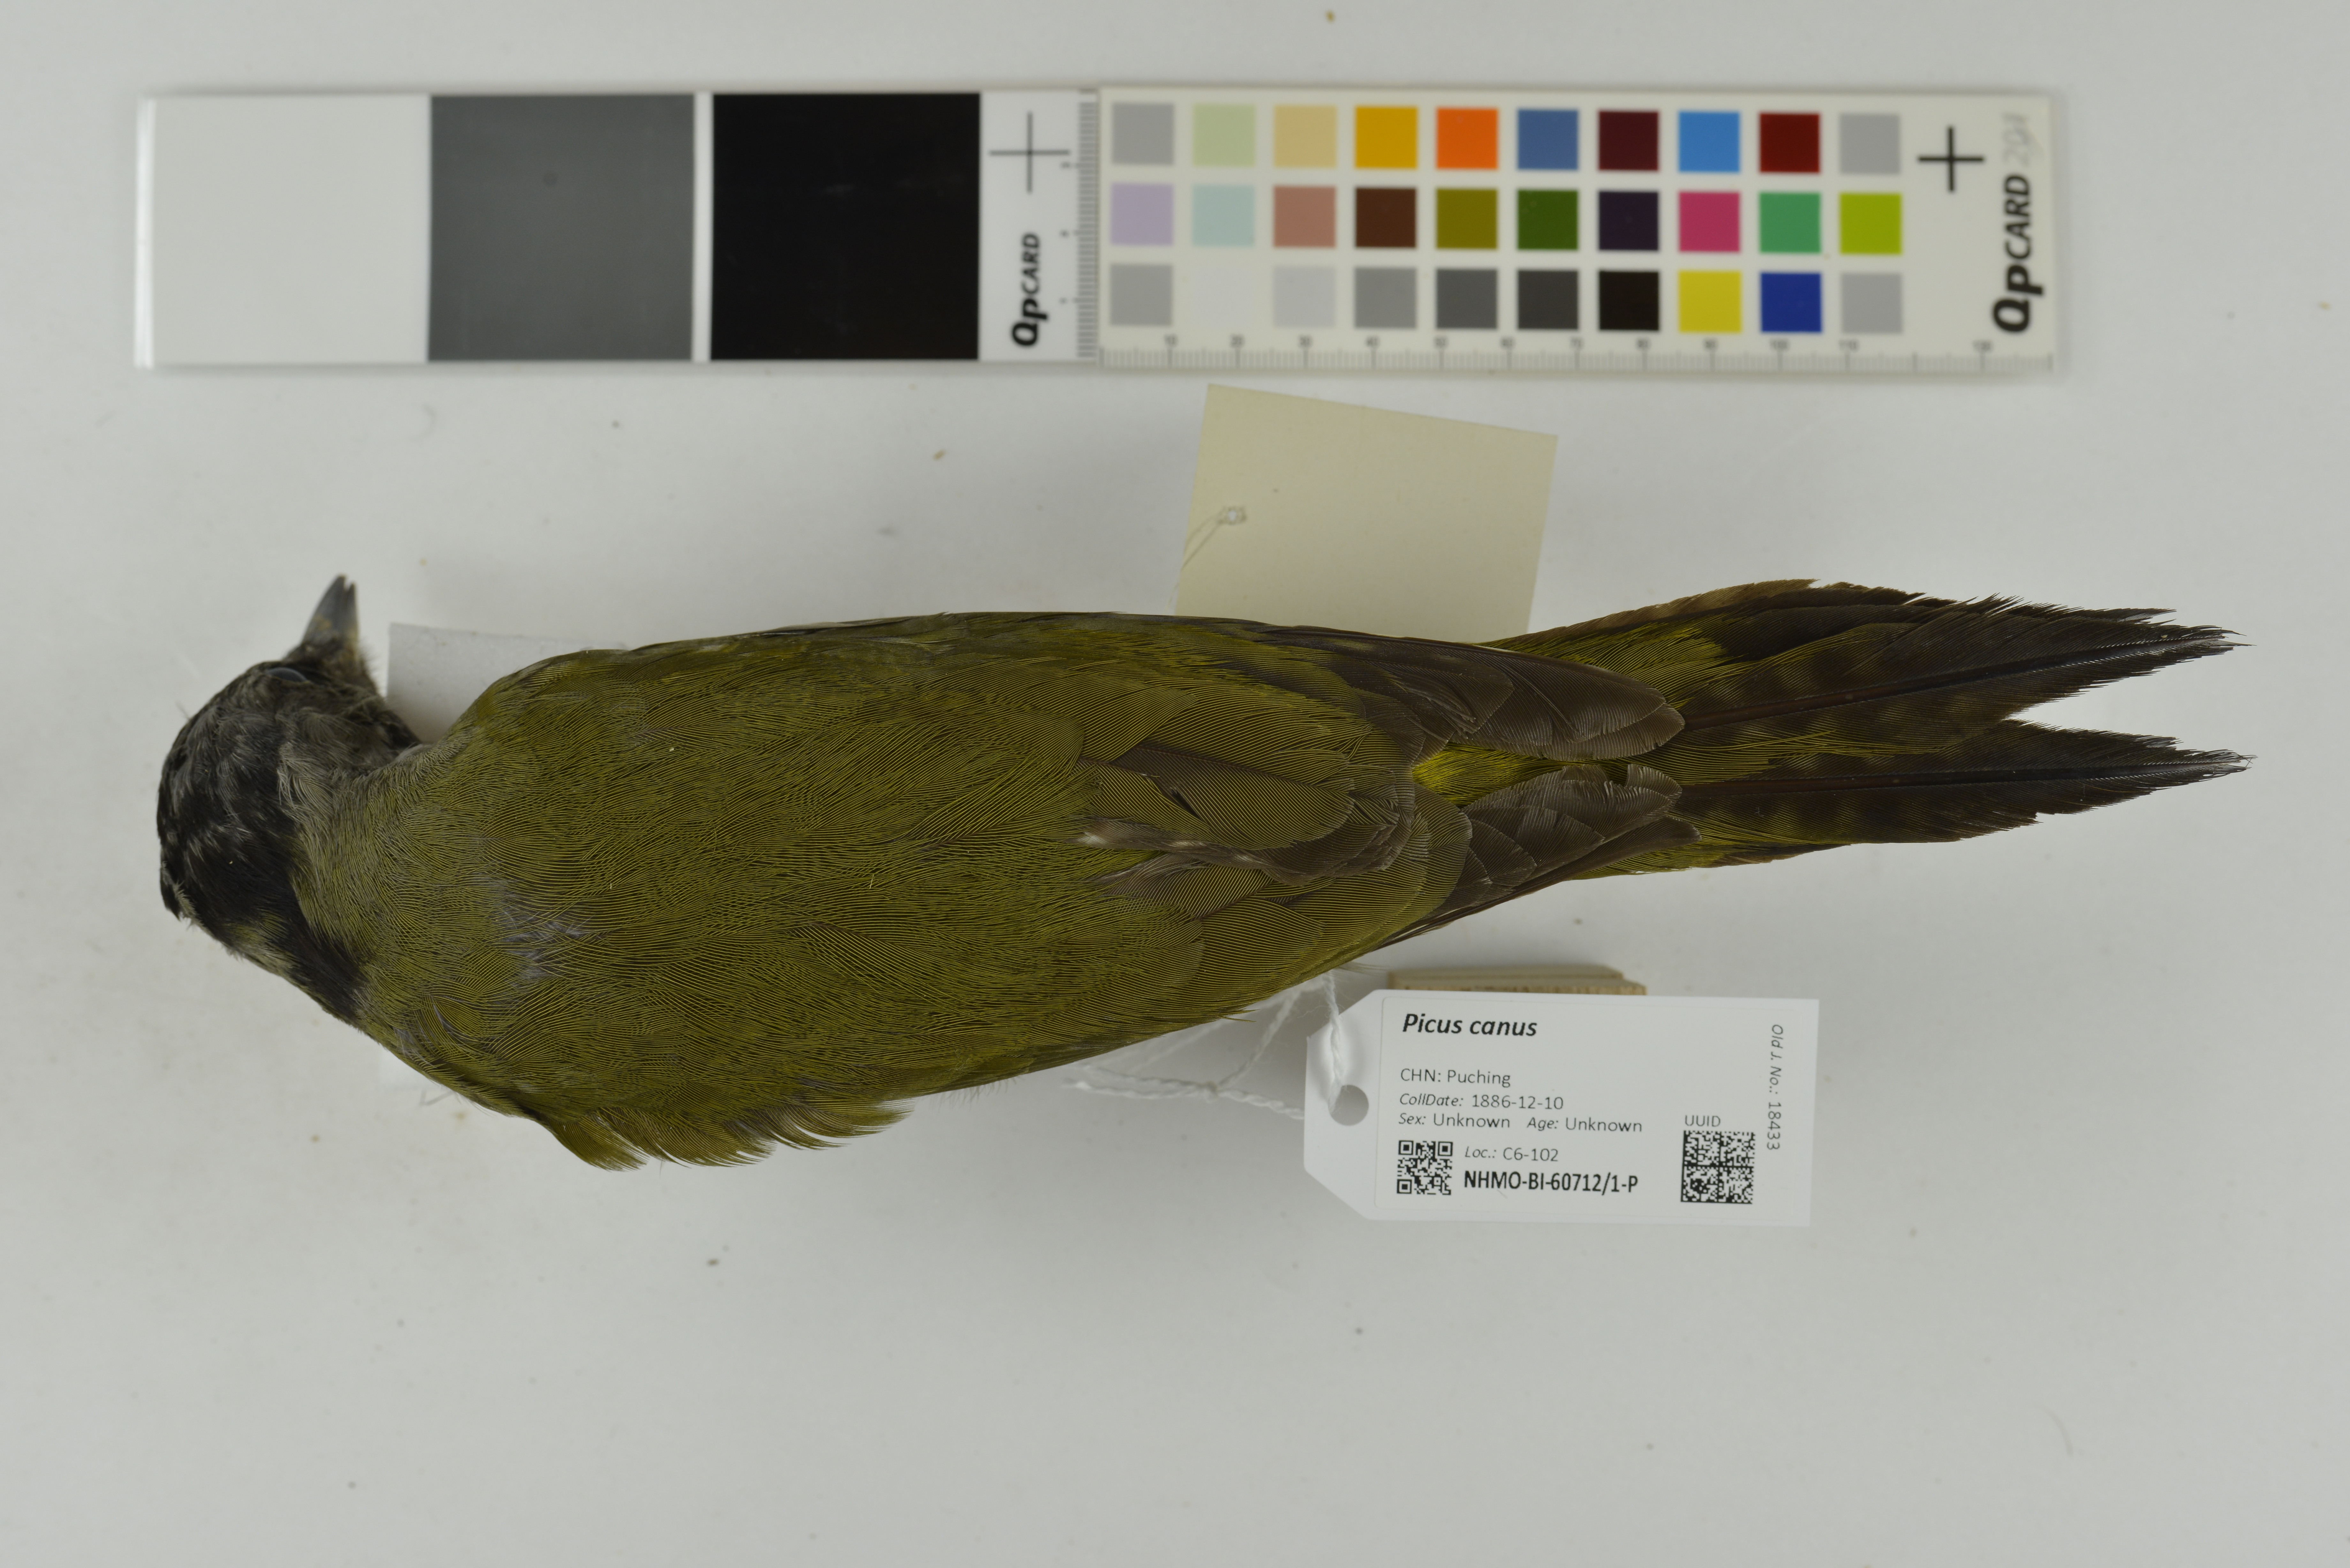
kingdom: Animalia
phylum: Chordata
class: Aves
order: Piciformes
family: Picidae
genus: Picus
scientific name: Picus canus
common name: Grey-headed woodpecker
